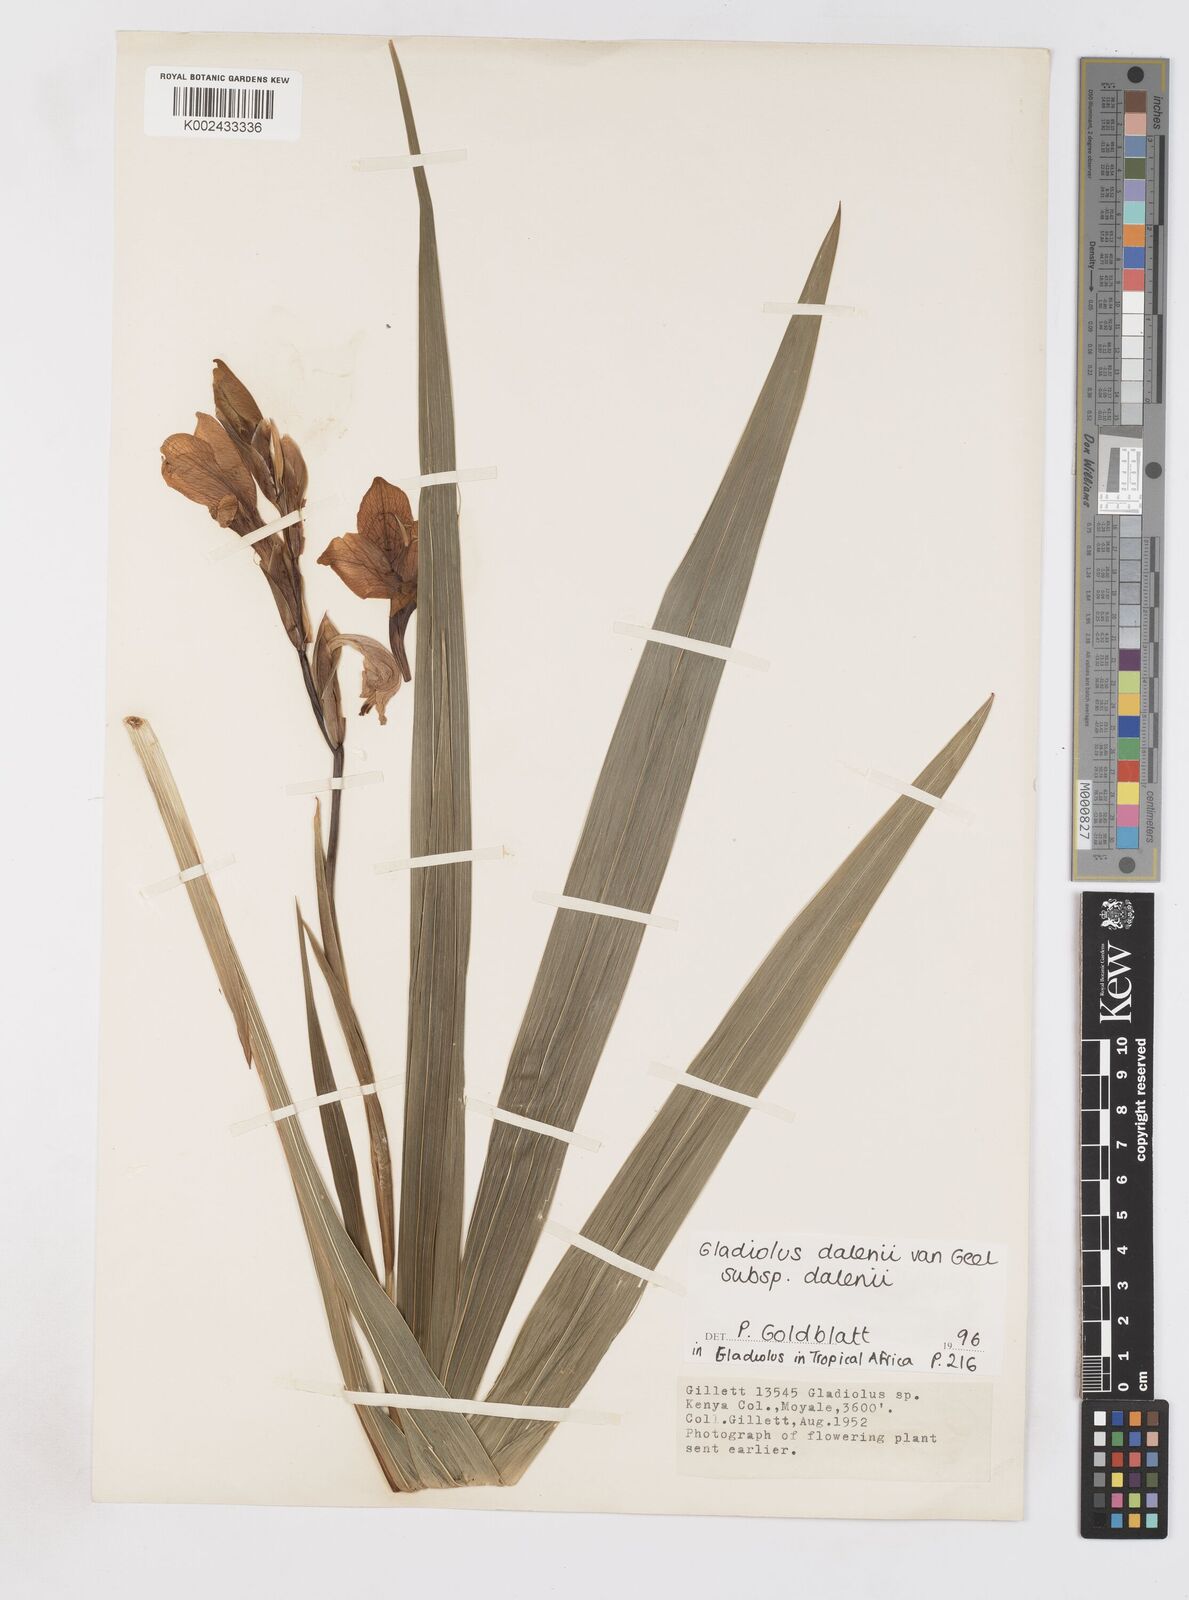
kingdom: Plantae
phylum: Tracheophyta
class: Liliopsida
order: Asparagales
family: Iridaceae
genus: Gladiolus
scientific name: Gladiolus dalenii
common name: Cornflag
